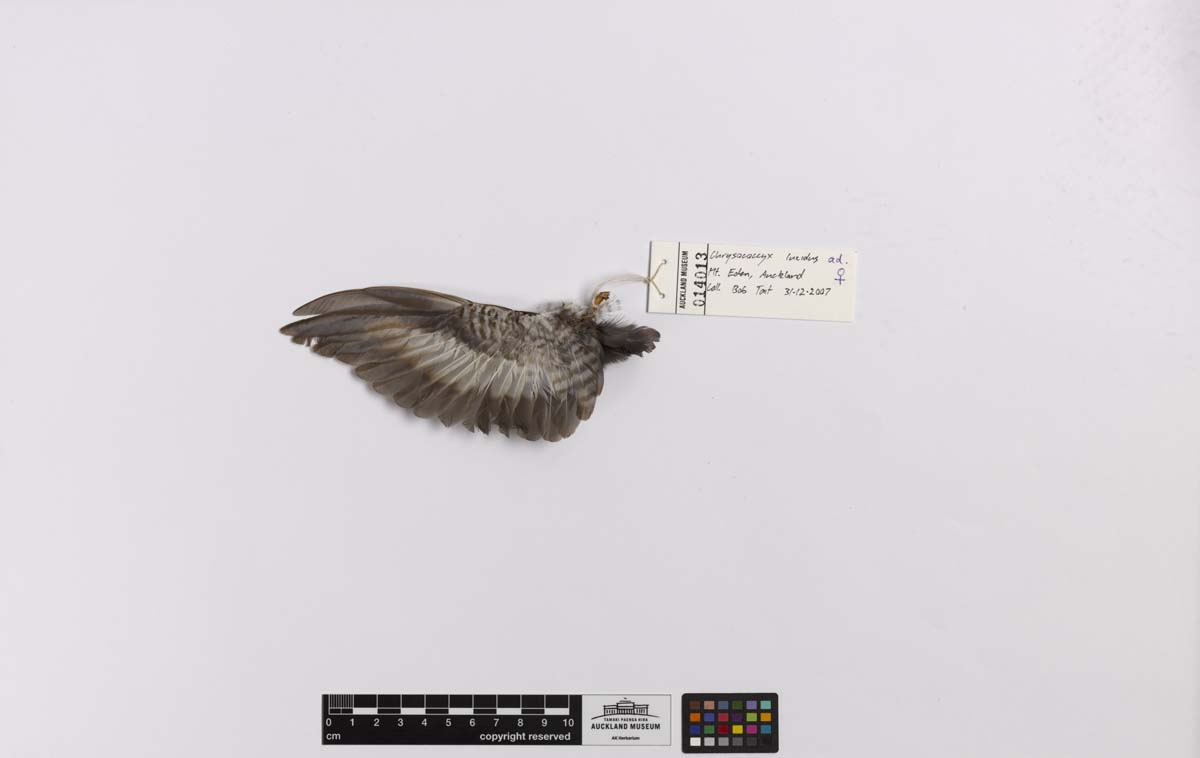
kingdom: Animalia
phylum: Chordata
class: Aves
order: Cuculiformes
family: Cuculidae
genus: Chrysococcyx
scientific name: Chrysococcyx lucidus
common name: Shining bronze cuckoo
